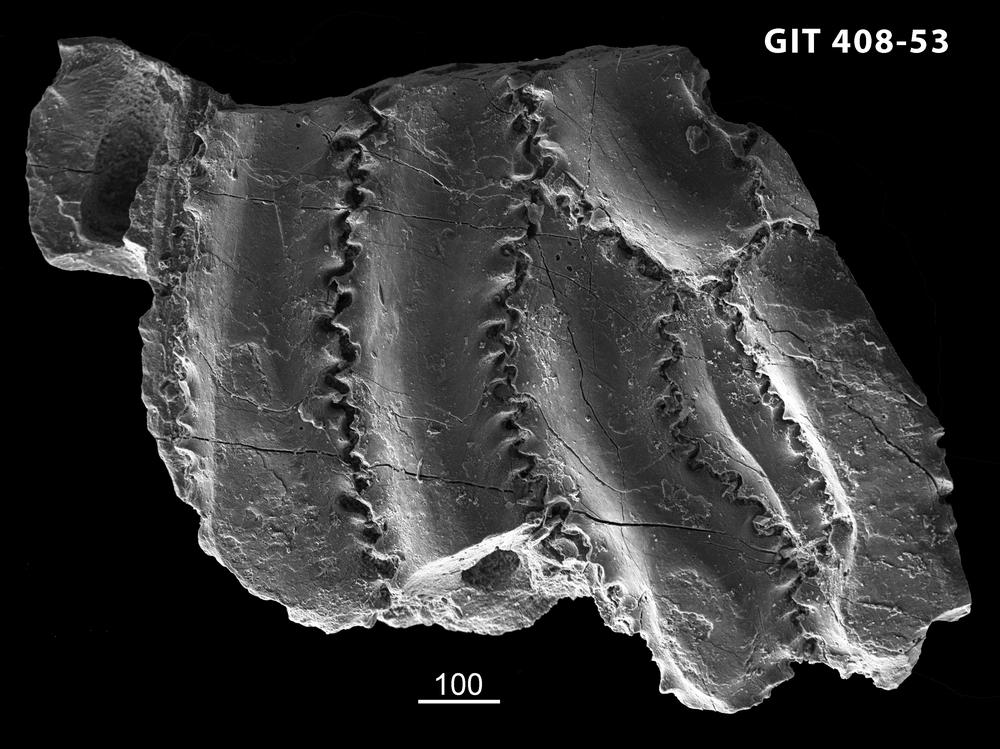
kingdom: Animalia
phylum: Chordata
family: Cyathaspididae
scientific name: Cyathaspididae
